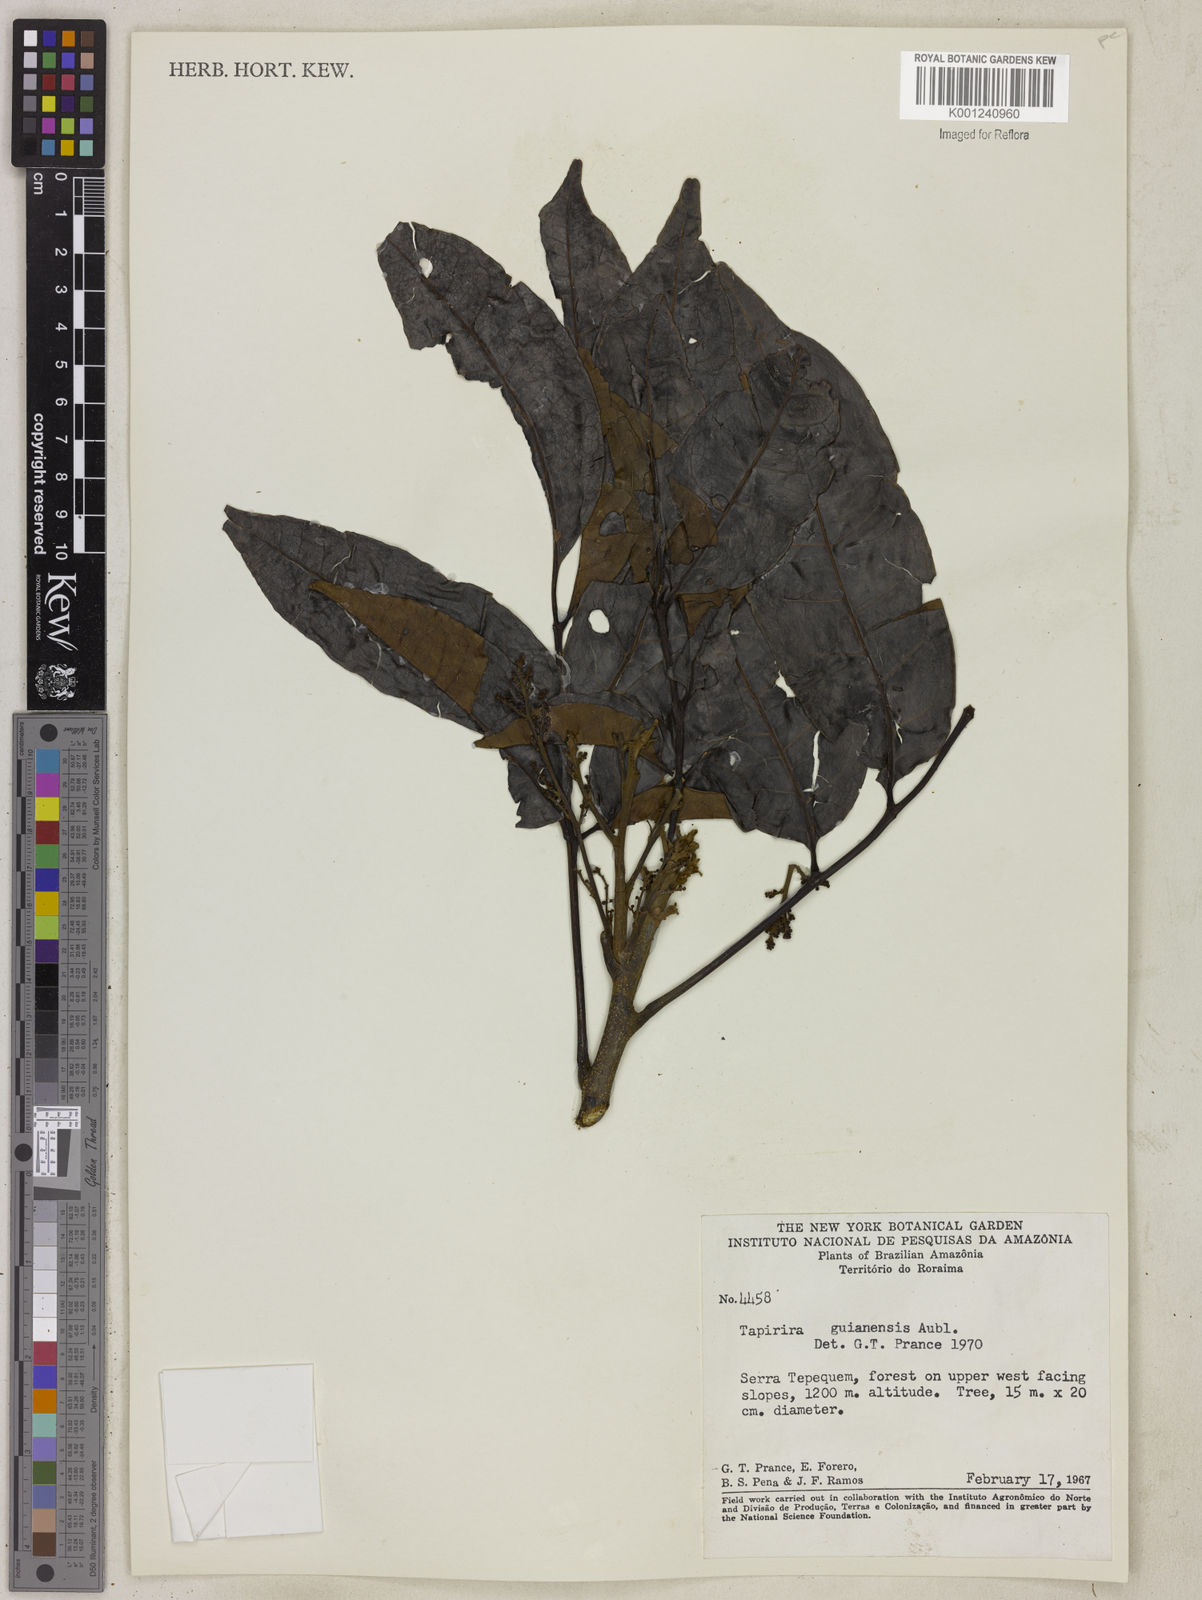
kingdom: Plantae
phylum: Tracheophyta
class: Magnoliopsida
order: Sapindales
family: Anacardiaceae
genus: Tapirira
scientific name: Tapirira guianensis
